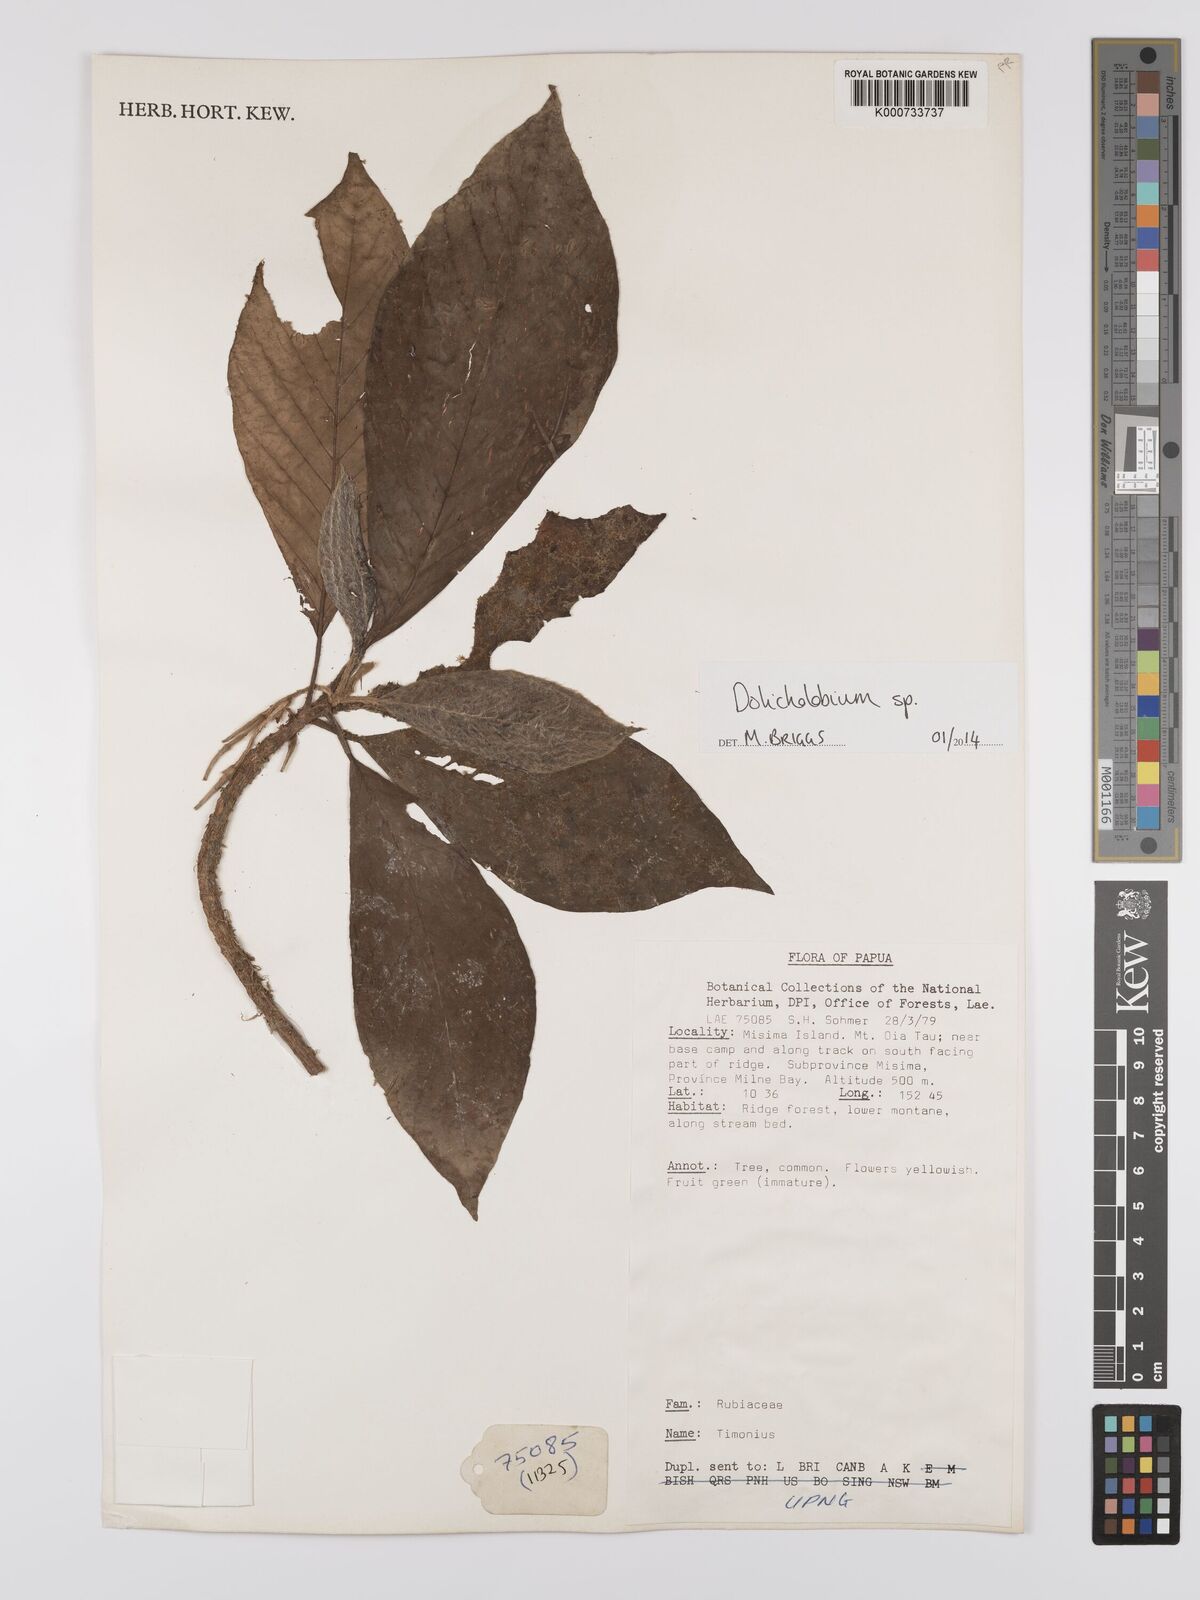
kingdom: Plantae
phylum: Tracheophyta
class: Magnoliopsida
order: Gentianales
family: Rubiaceae
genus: Dolicholobium
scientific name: Dolicholobium
